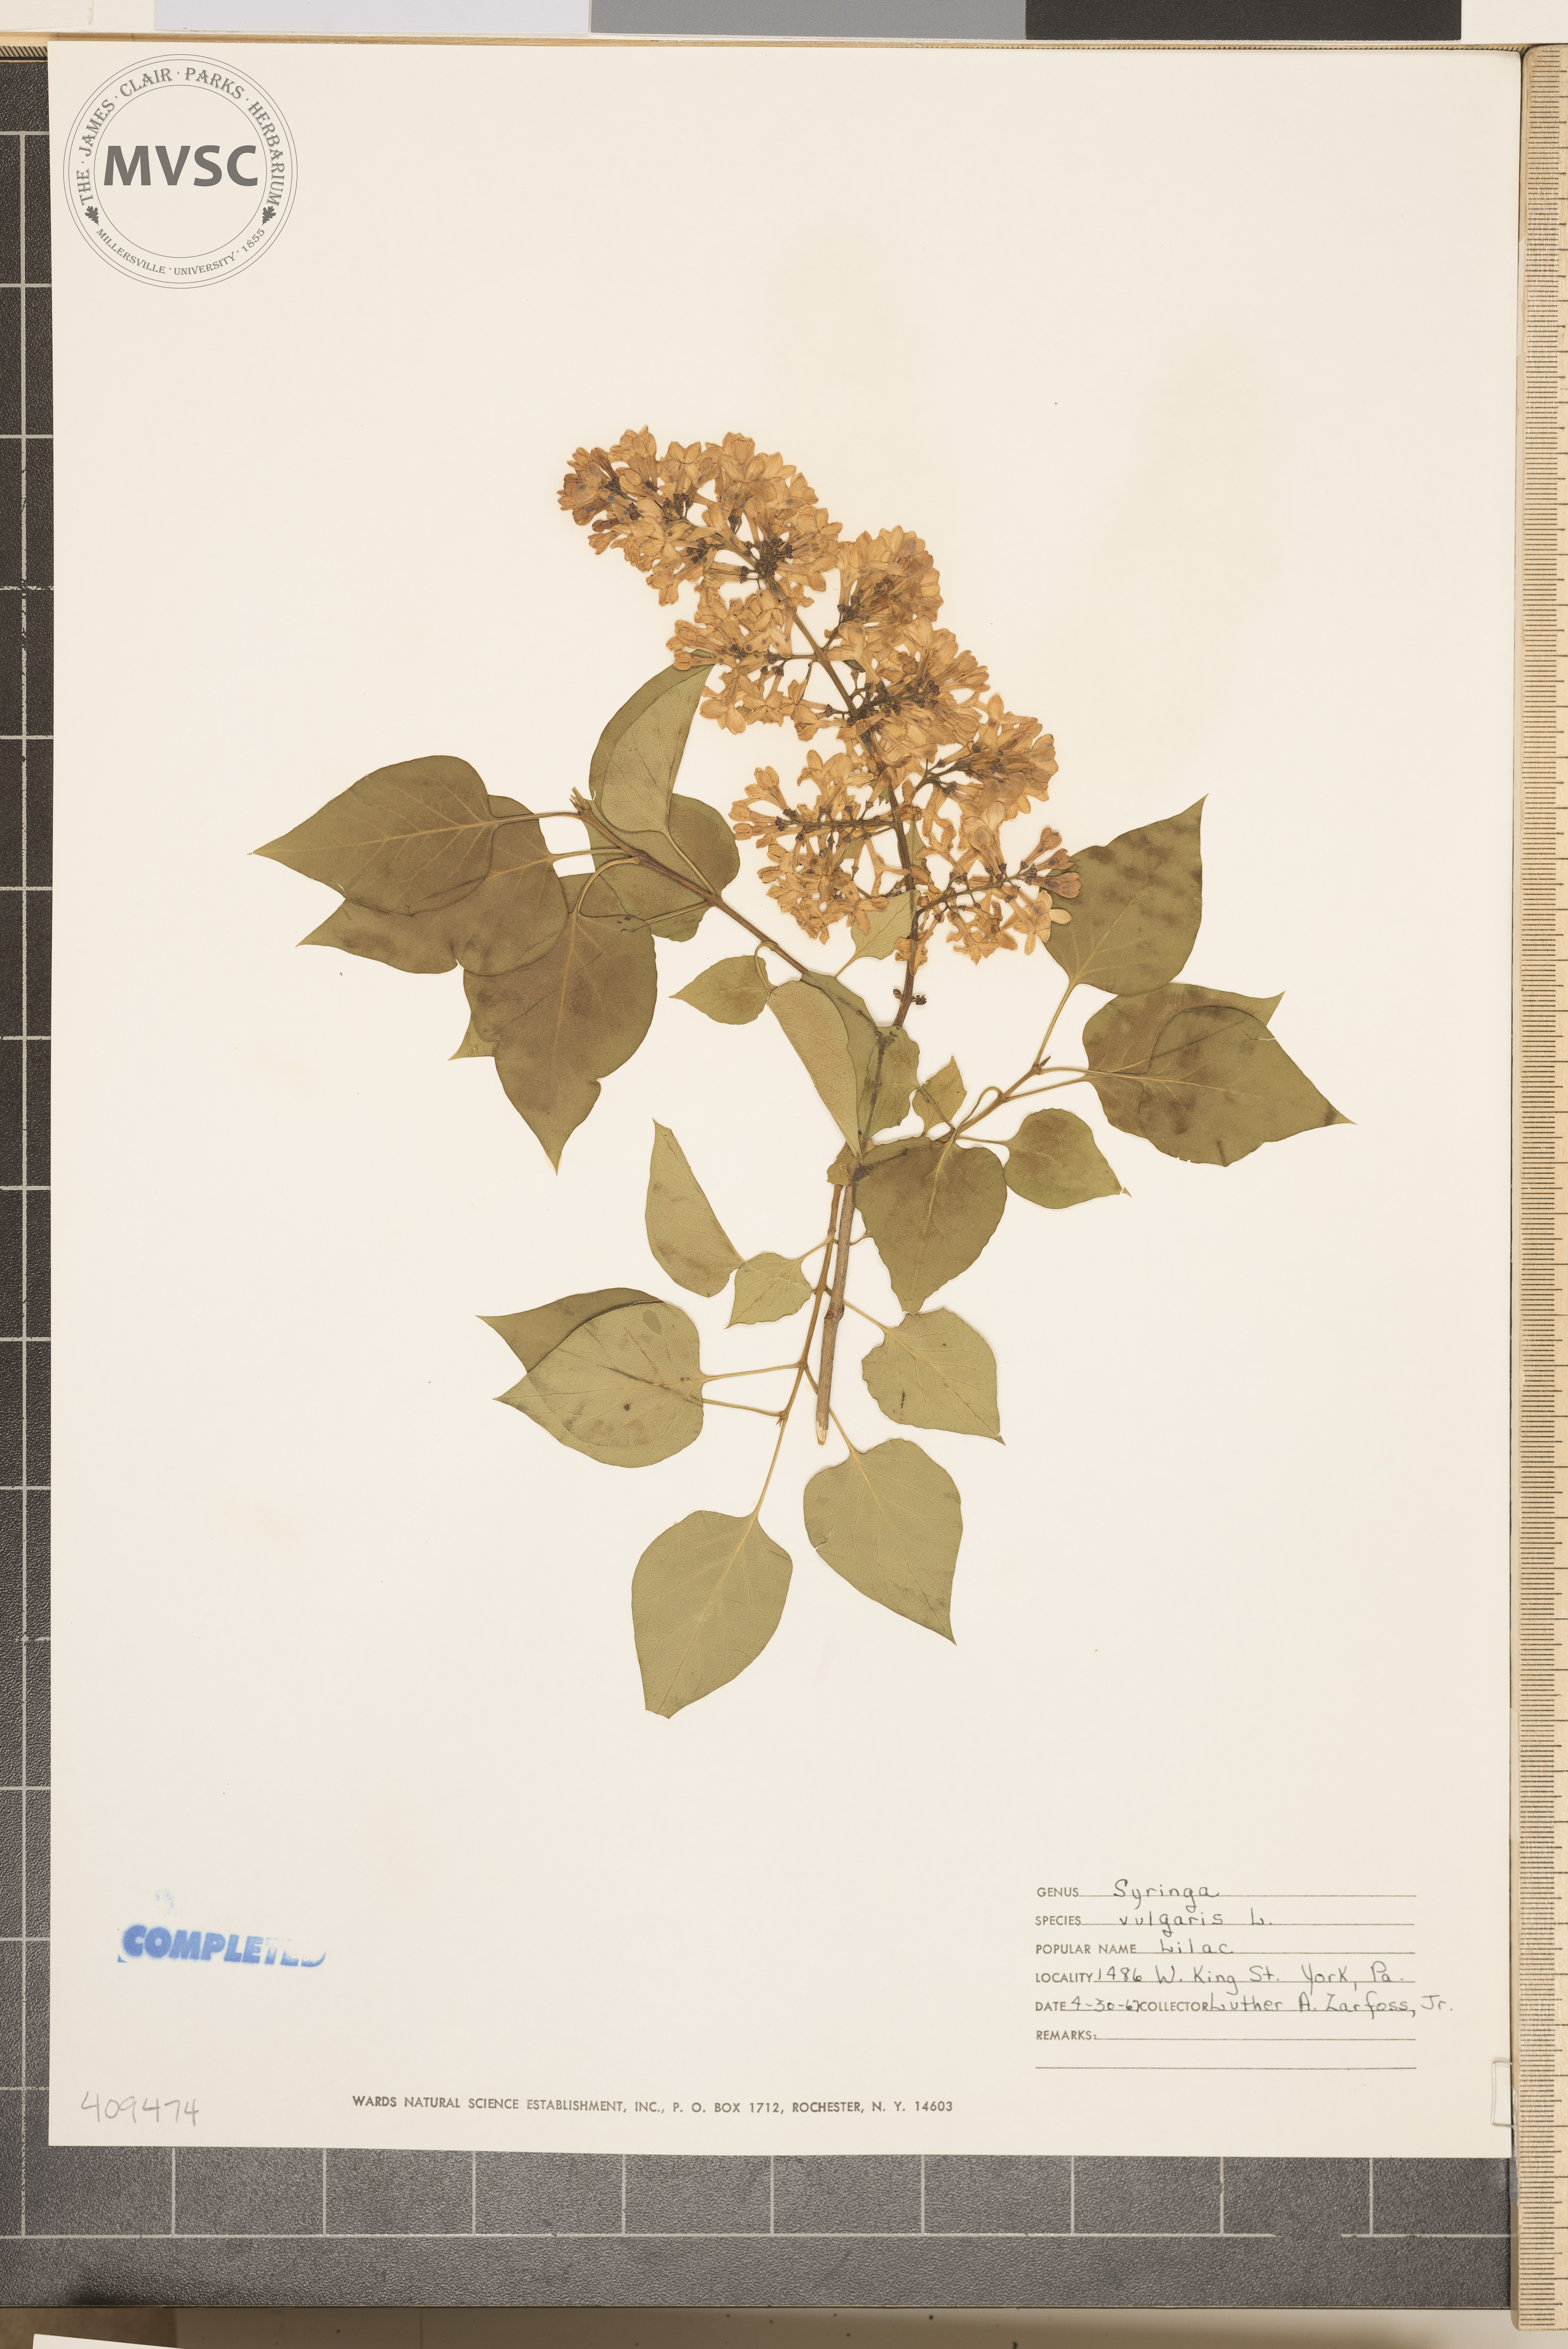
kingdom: Plantae
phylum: Tracheophyta
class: Magnoliopsida
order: Lamiales
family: Oleaceae
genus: Syringa
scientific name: Syringa vulgaris
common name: Common lilac
